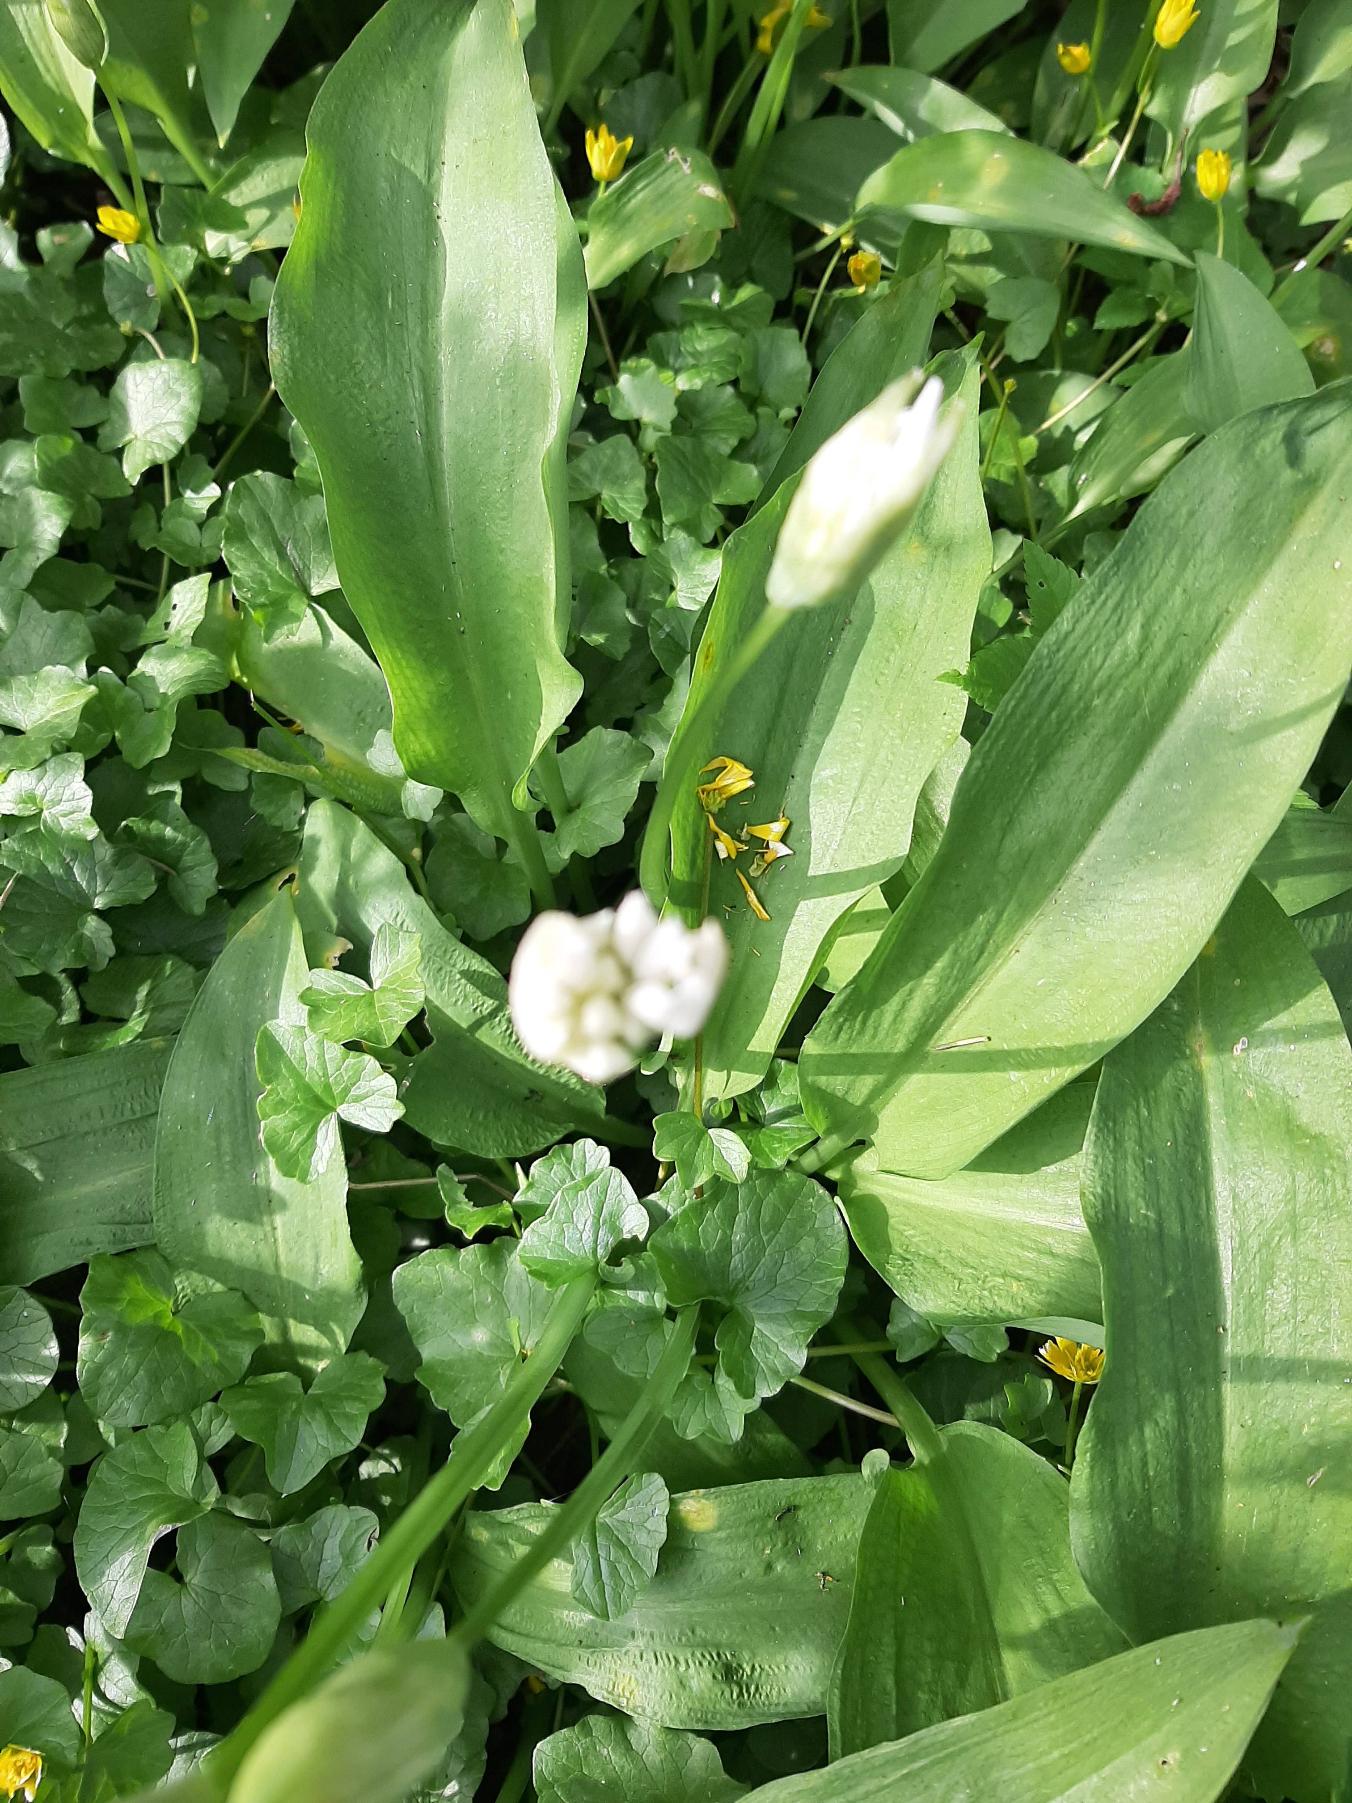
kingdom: Plantae
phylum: Tracheophyta
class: Liliopsida
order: Asparagales
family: Amaryllidaceae
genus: Allium
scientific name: Allium ursinum
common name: Rams-løg
